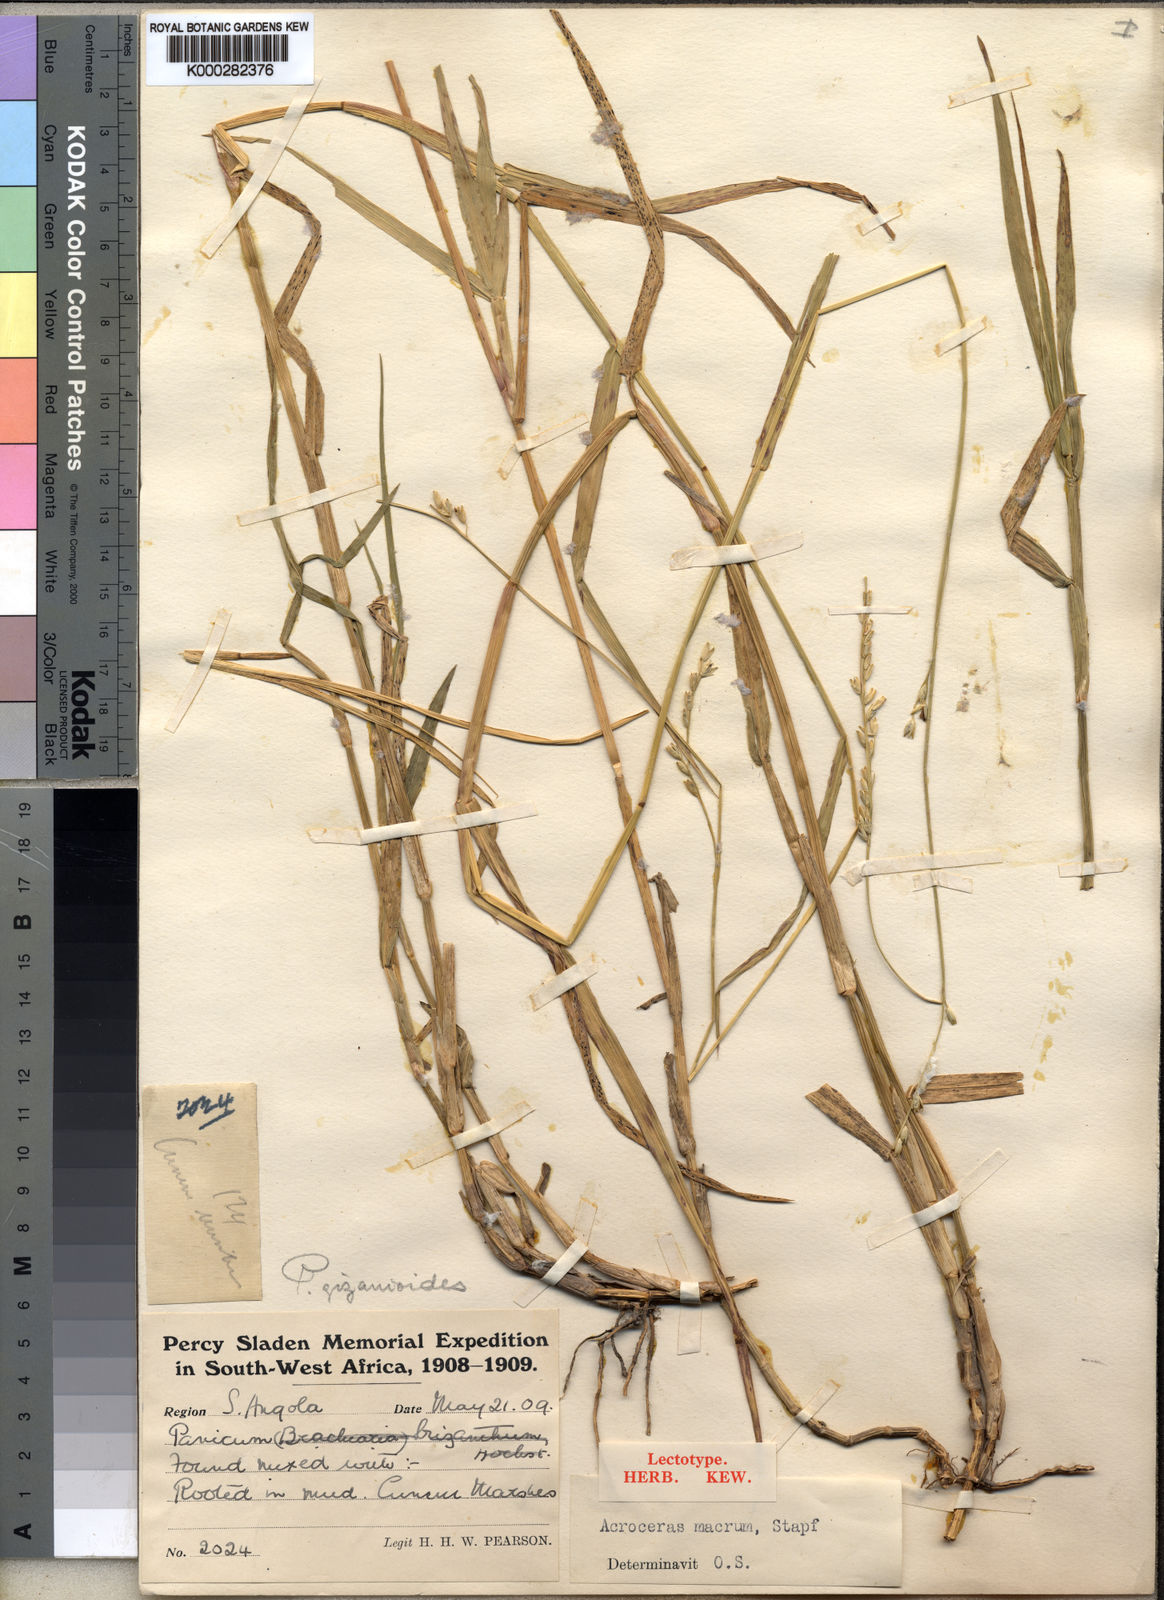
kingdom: Plantae
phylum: Tracheophyta
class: Liliopsida
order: Poales
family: Poaceae
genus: Acroceras
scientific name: Acroceras macrum
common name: Nyl grass
